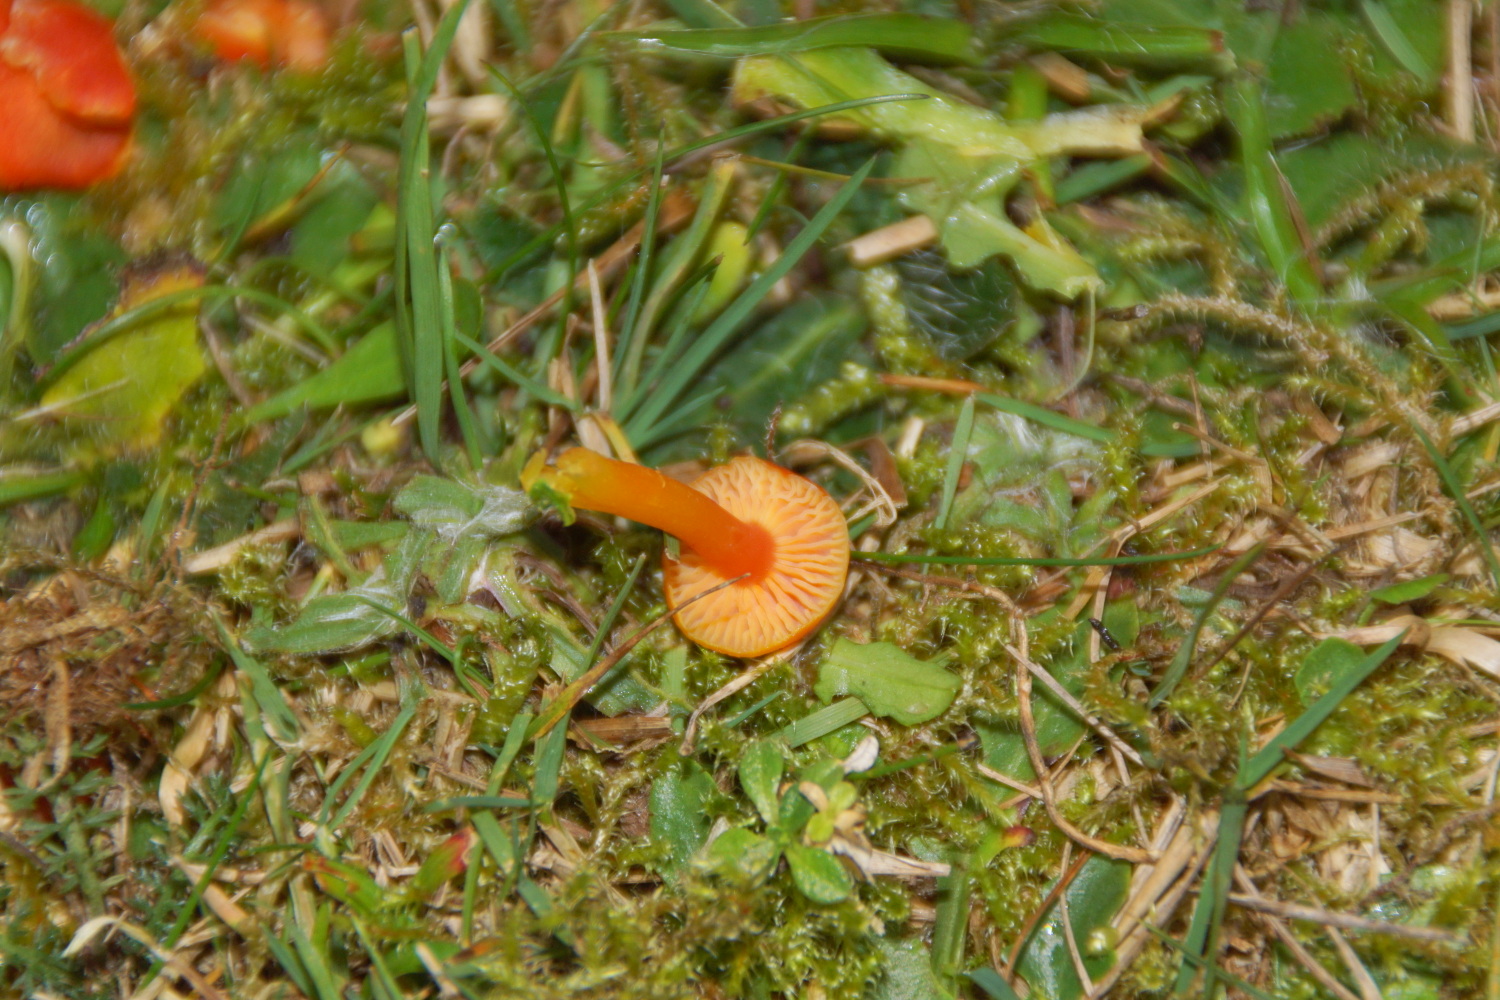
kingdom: Fungi
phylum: Basidiomycota
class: Agaricomycetes
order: Agaricales
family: Hygrophoraceae
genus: Hygrocybe
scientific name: Hygrocybe miniata
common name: mønje-vokshat
